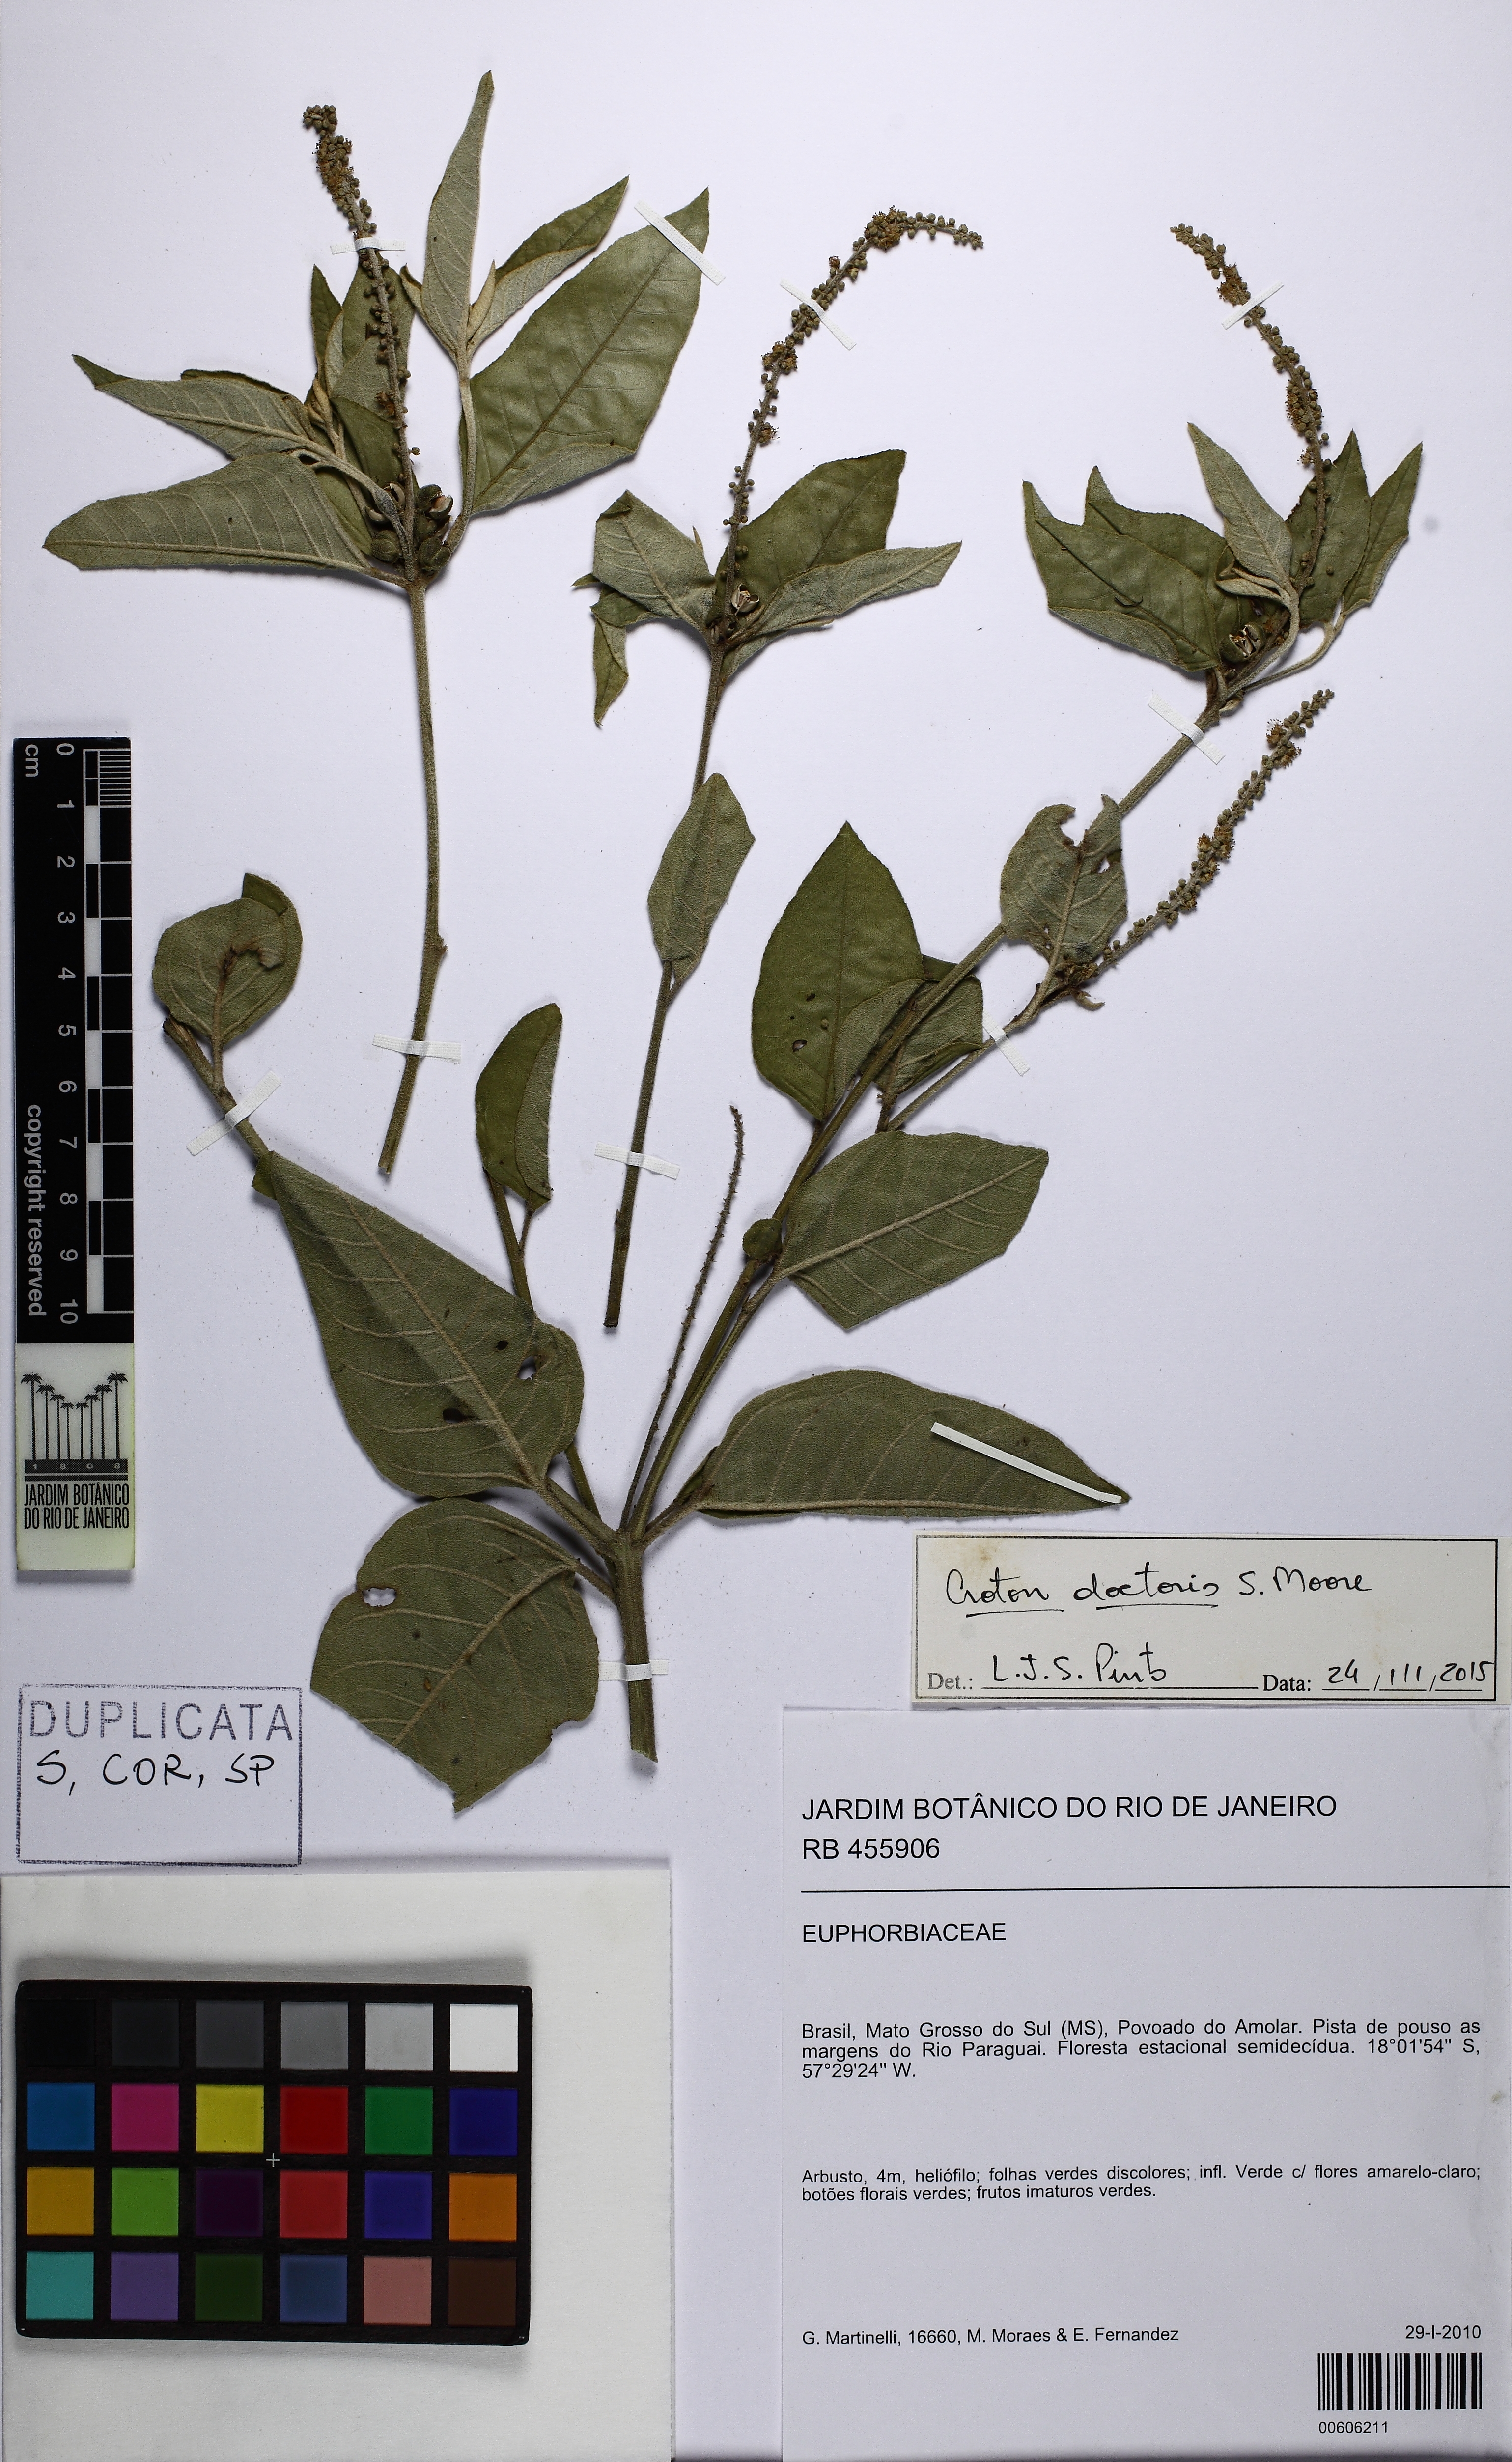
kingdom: Plantae
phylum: Tracheophyta
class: Magnoliopsida
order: Malpighiales
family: Euphorbiaceae
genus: Croton
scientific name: Croton doctoris
